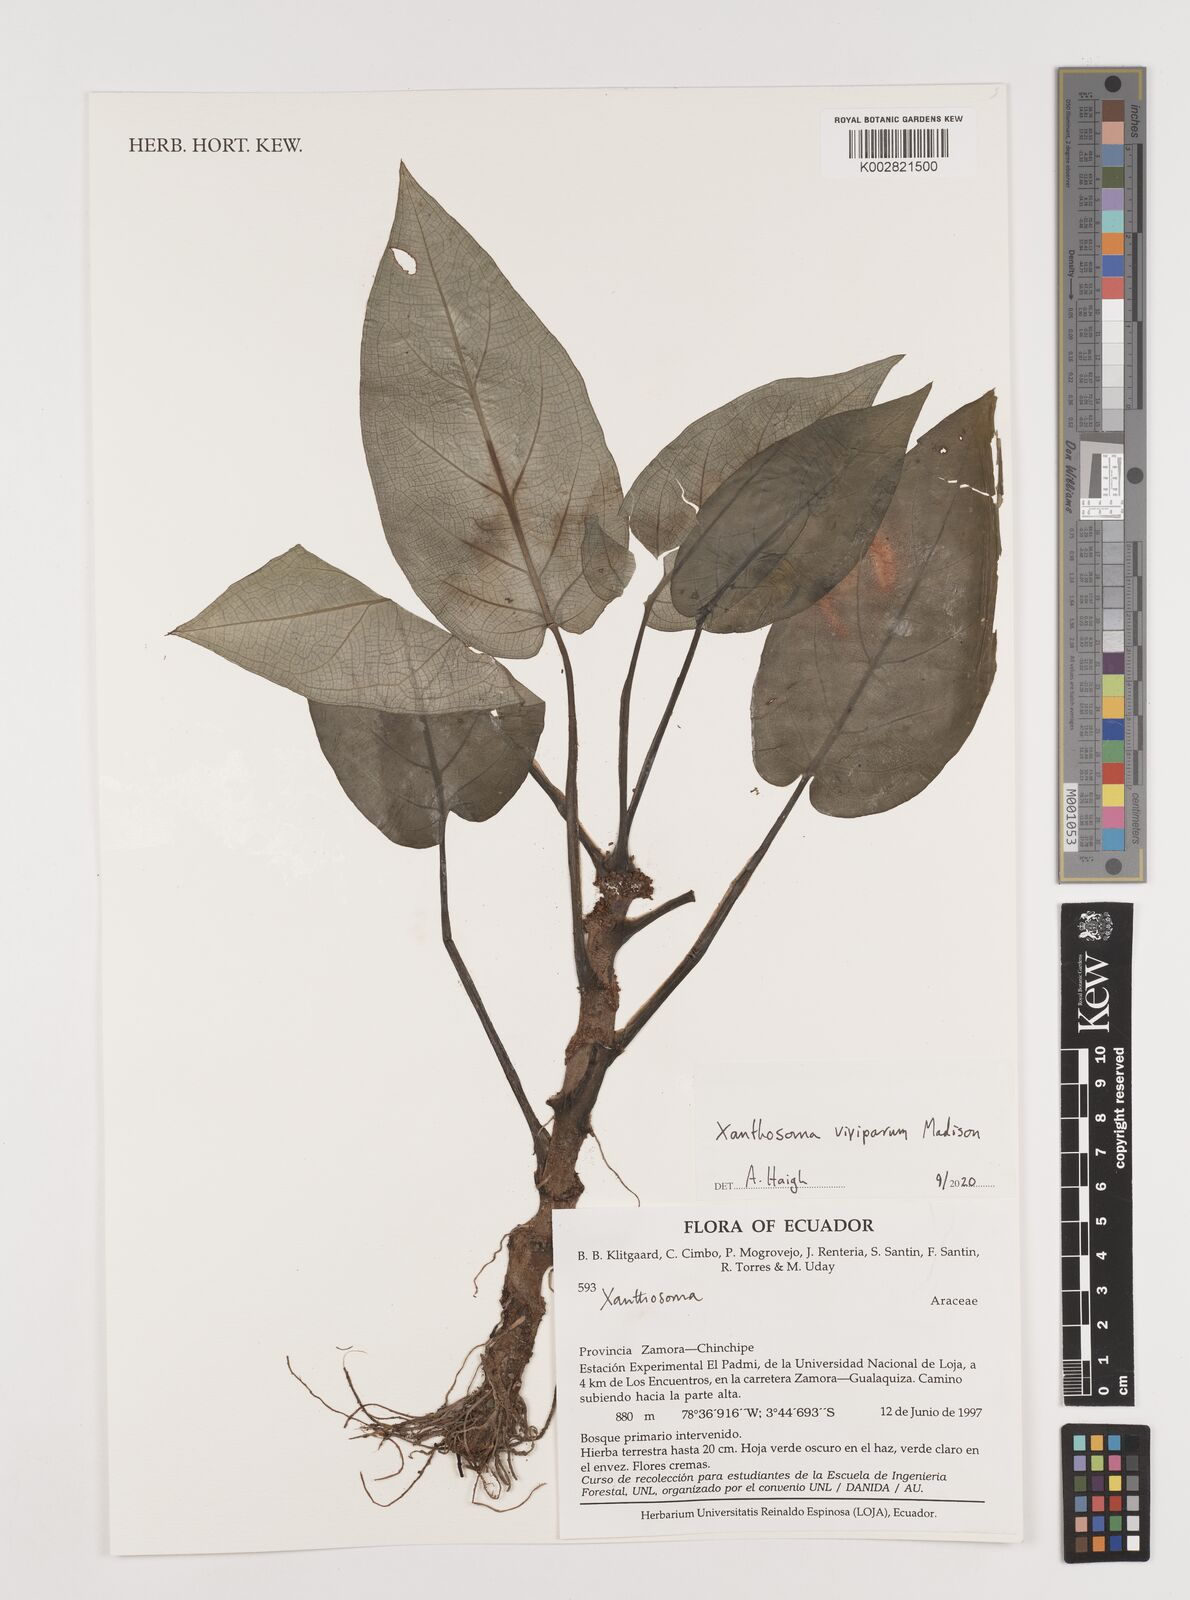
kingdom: Plantae
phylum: Tracheophyta
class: Liliopsida
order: Alismatales
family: Araceae
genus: Xanthosoma
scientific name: Xanthosoma viviparum
